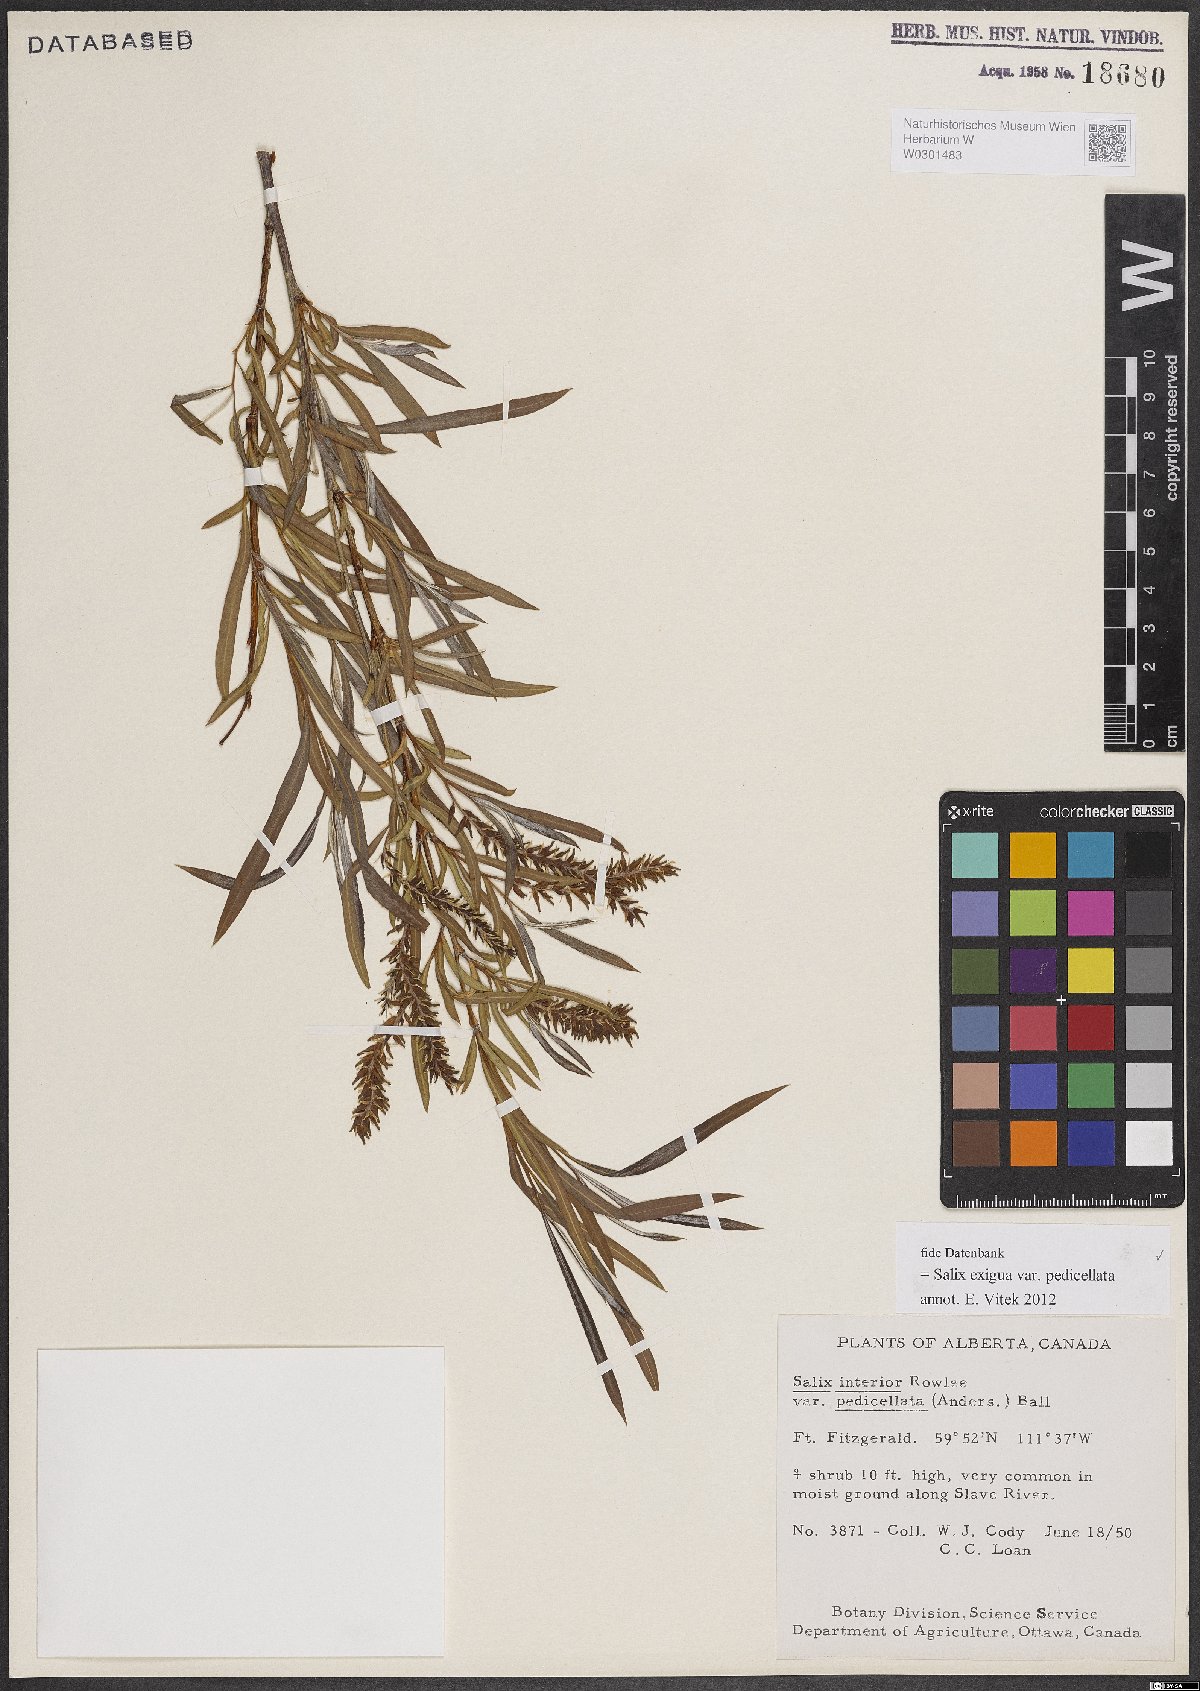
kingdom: Plantae
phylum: Tracheophyta
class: Magnoliopsida
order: Malpighiales
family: Salicaceae
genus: Salix
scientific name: Salix interior
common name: Sandbar willow
